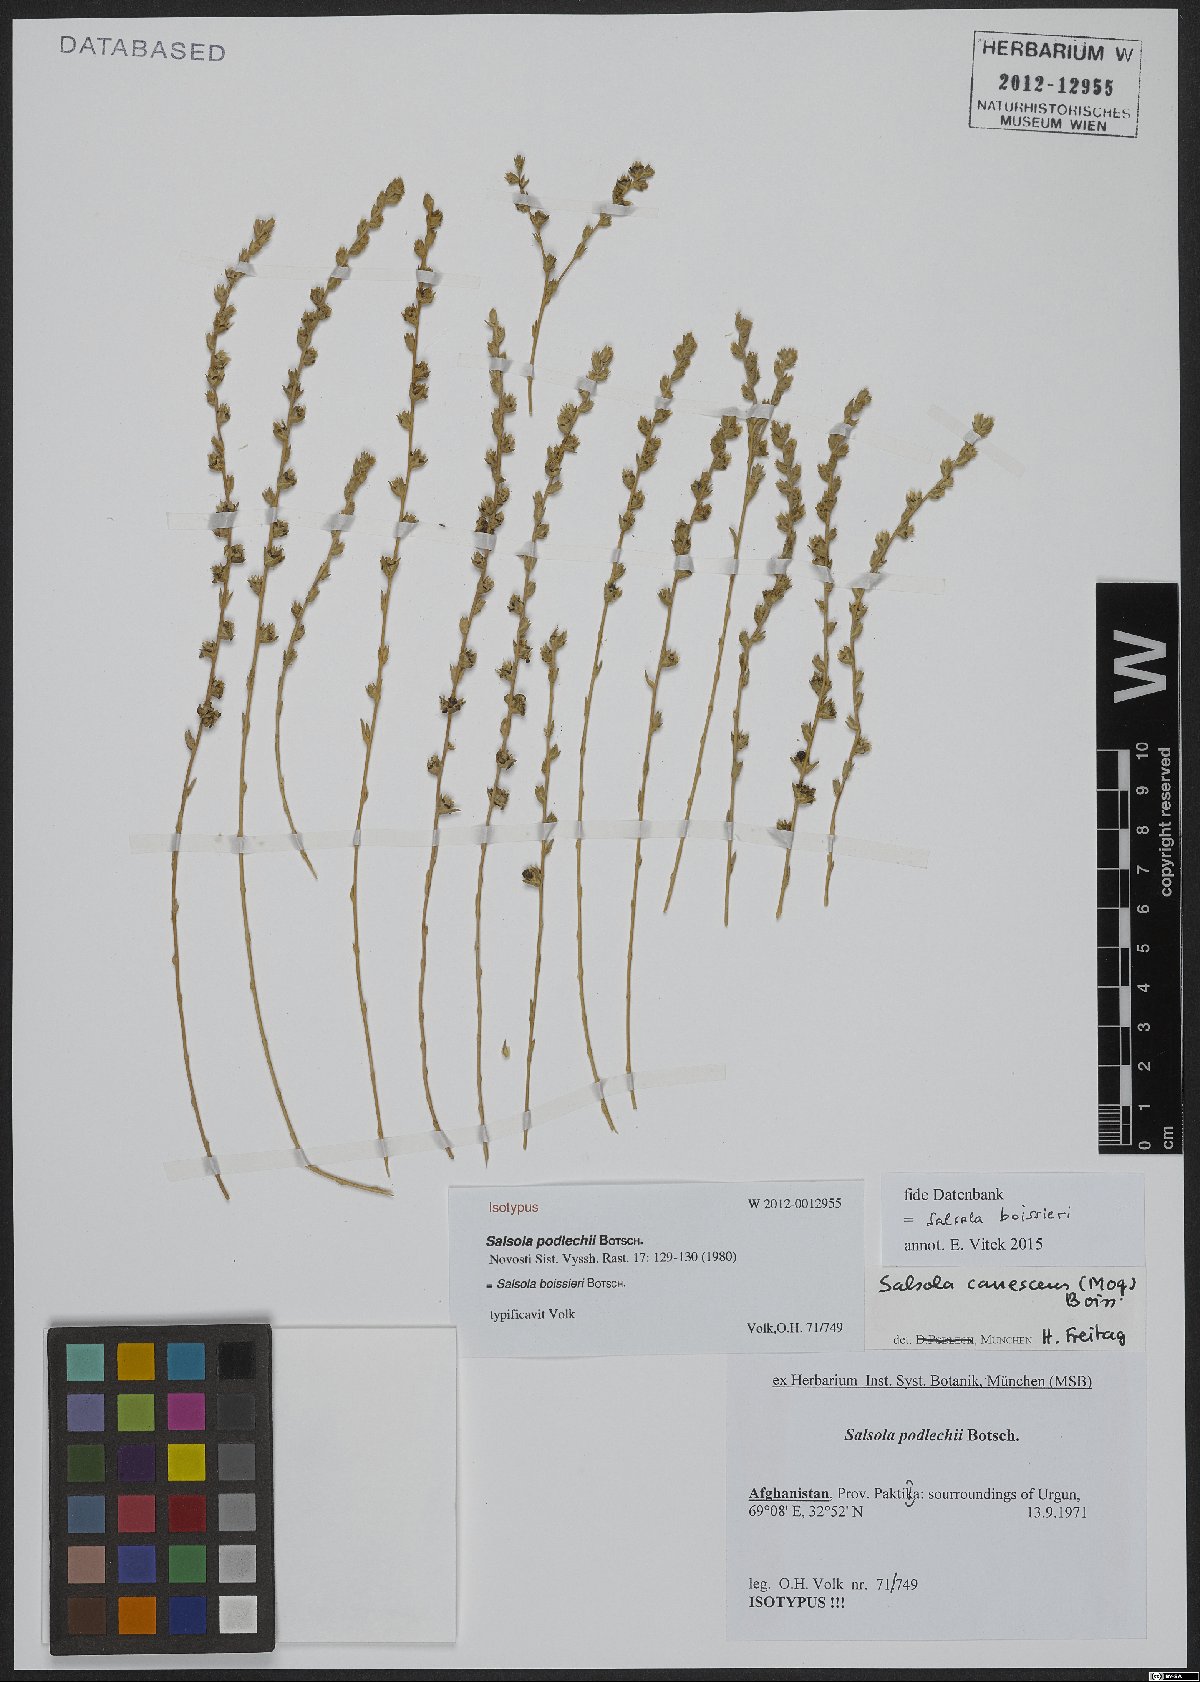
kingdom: Plantae
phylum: Tracheophyta
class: Magnoliopsida
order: Caryophyllales
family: Amaranthaceae
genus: Akhania
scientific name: Akhania canescens
